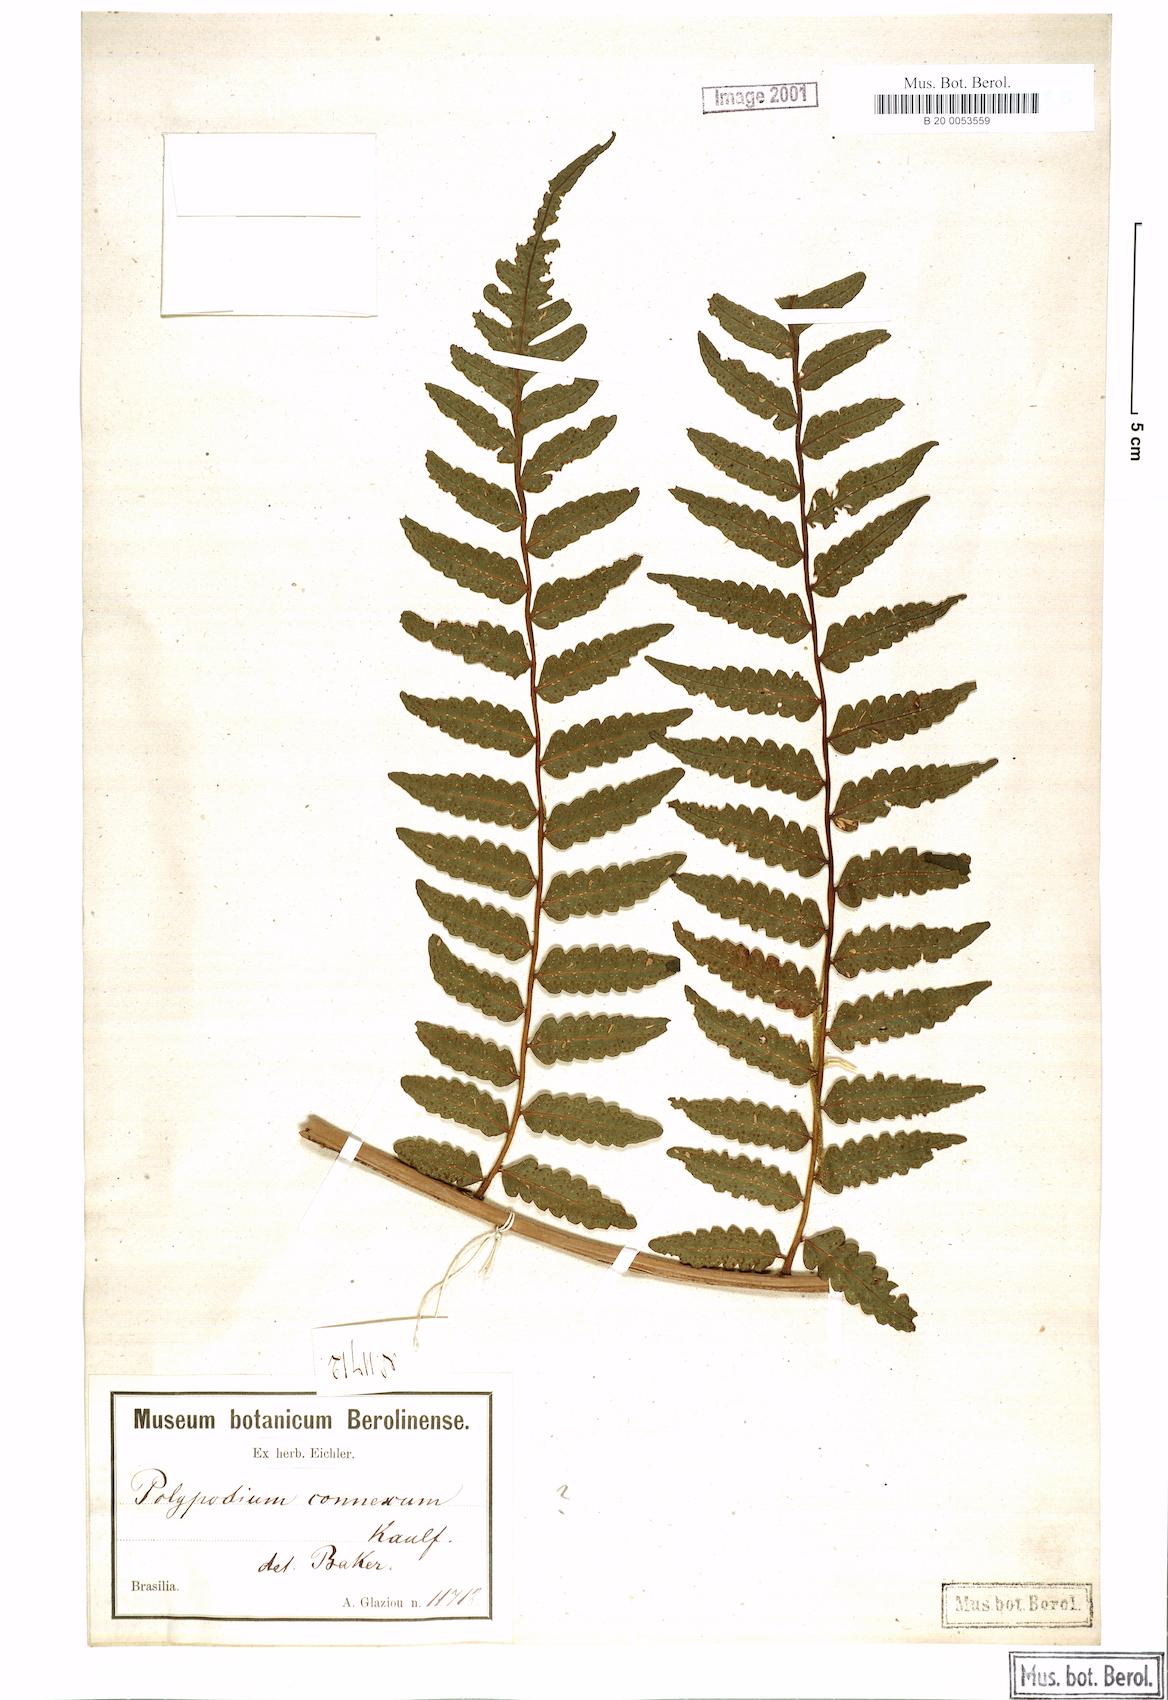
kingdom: Plantae
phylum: Tracheophyta
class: Polypodiopsida
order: Polypodiales
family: Dryopteridaceae
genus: Megalastrum
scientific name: Megalastrum connexum
